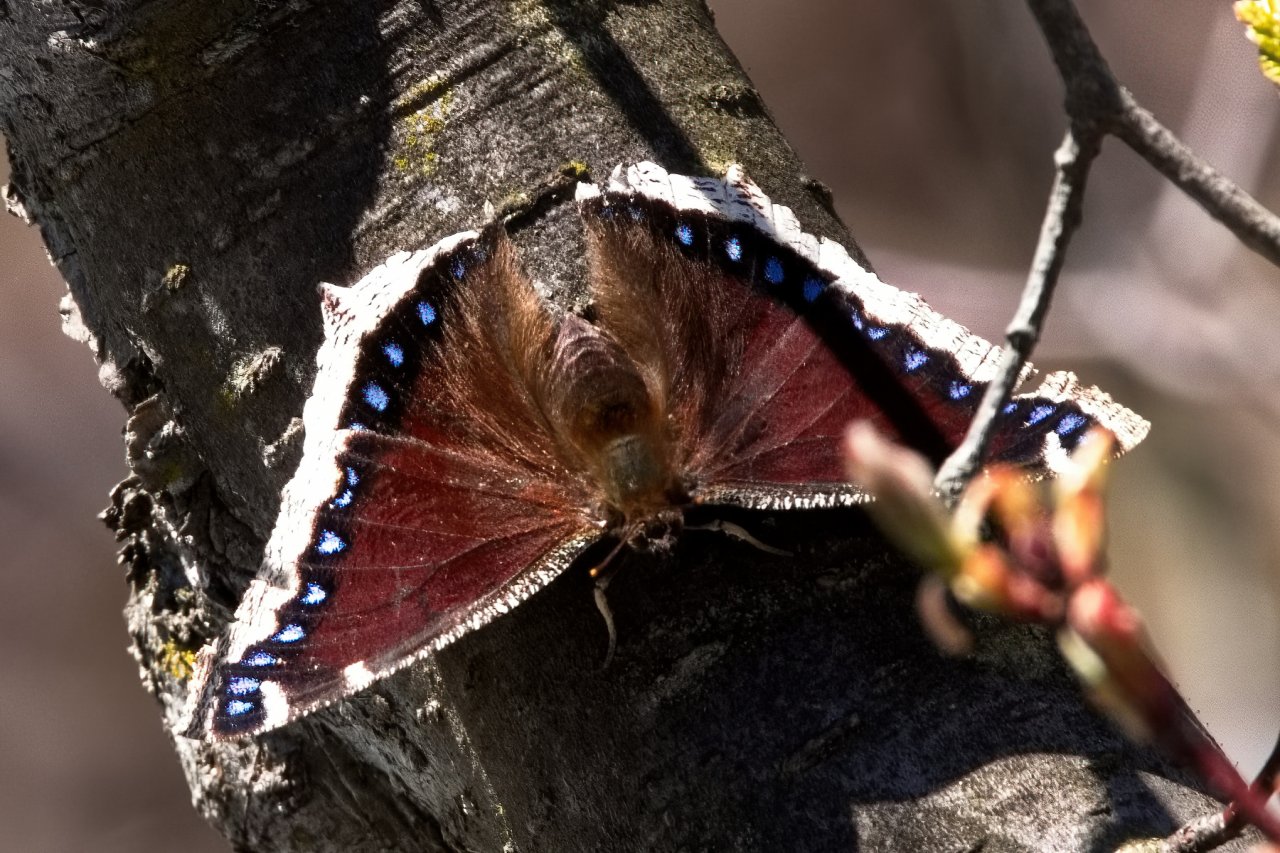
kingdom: Animalia
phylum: Arthropoda
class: Insecta
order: Lepidoptera
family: Nymphalidae
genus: Nymphalis
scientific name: Nymphalis antiopa
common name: Mourning Cloak
